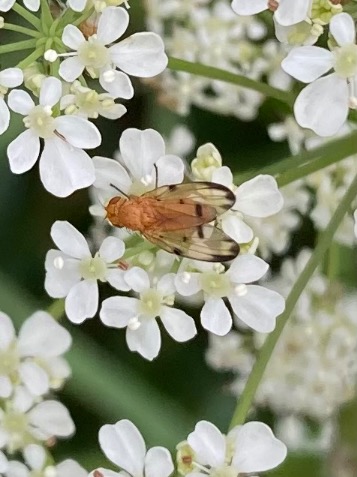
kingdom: Animalia
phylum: Arthropoda
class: Insecta
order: Diptera
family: Pallopteridae
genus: Palloptera
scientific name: Palloptera quinquemaculata
